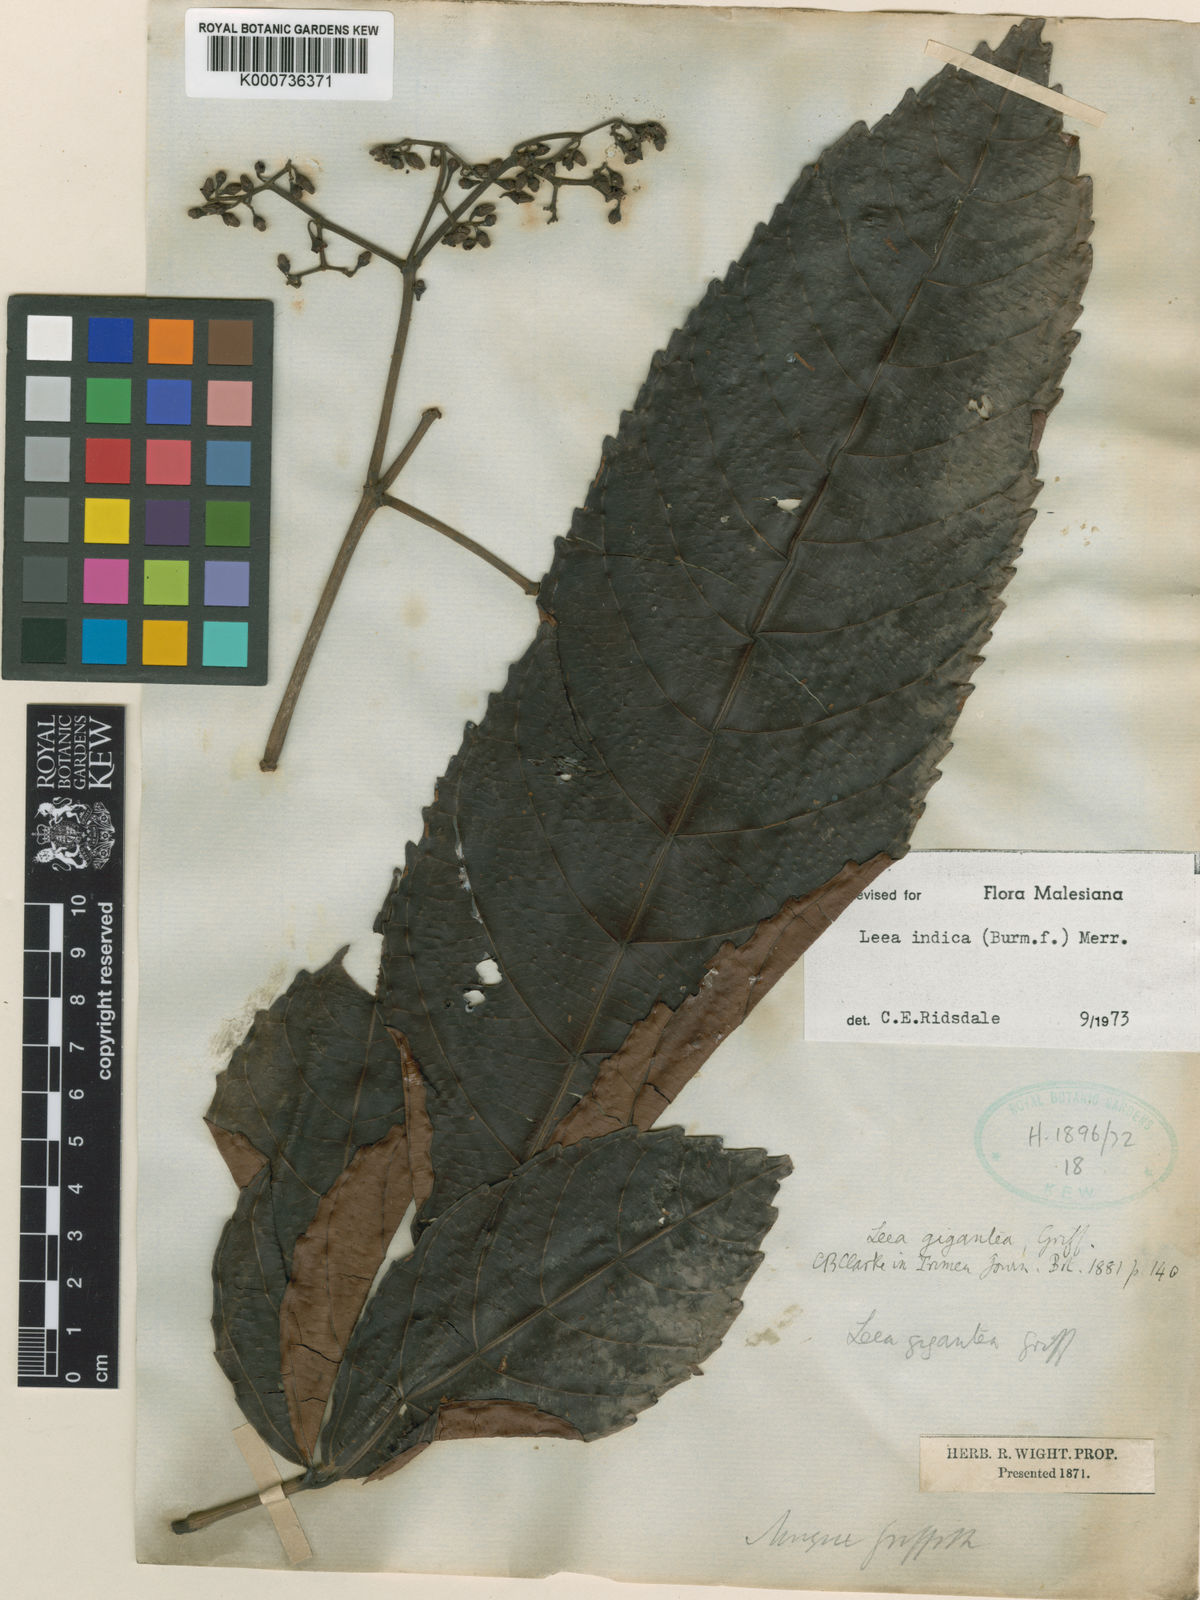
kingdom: Plantae
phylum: Tracheophyta
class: Magnoliopsida
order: Vitales
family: Vitaceae
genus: Leea
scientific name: Leea indica
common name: Bandicoot-berry
